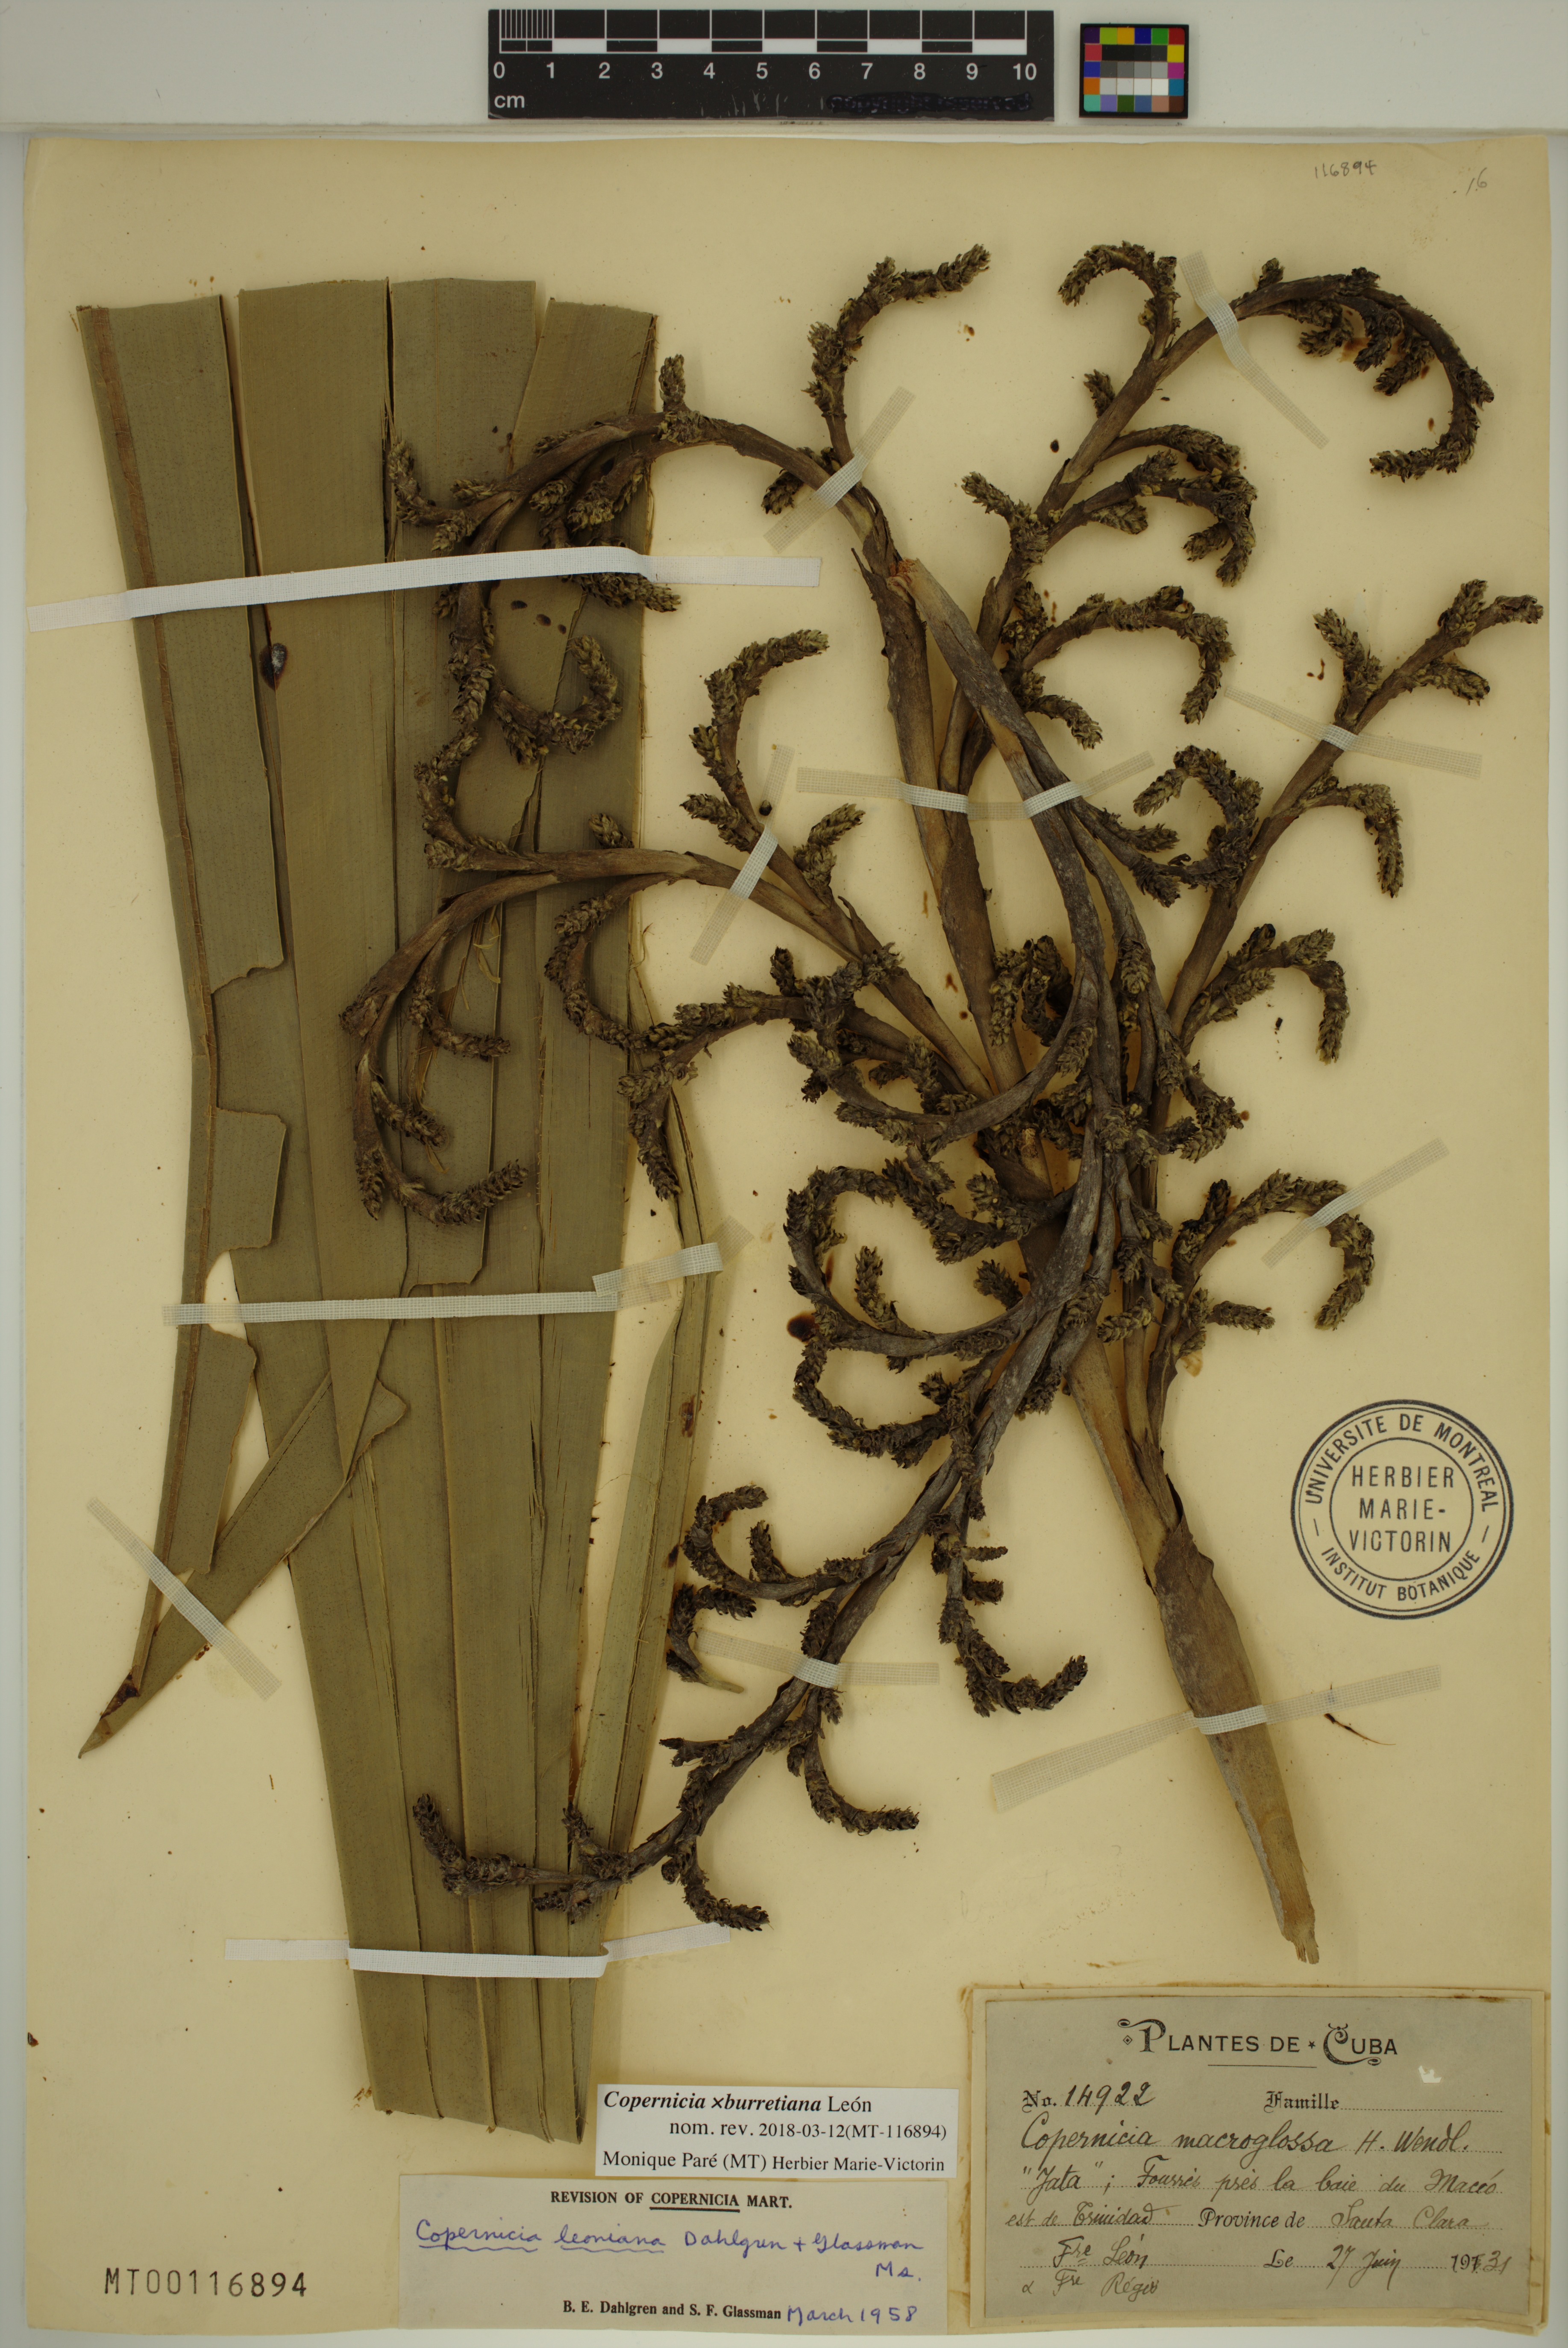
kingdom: Plantae
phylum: Tracheophyta
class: Liliopsida
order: Arecales
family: Arecaceae
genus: Copernicia
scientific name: Copernicia burretiana
